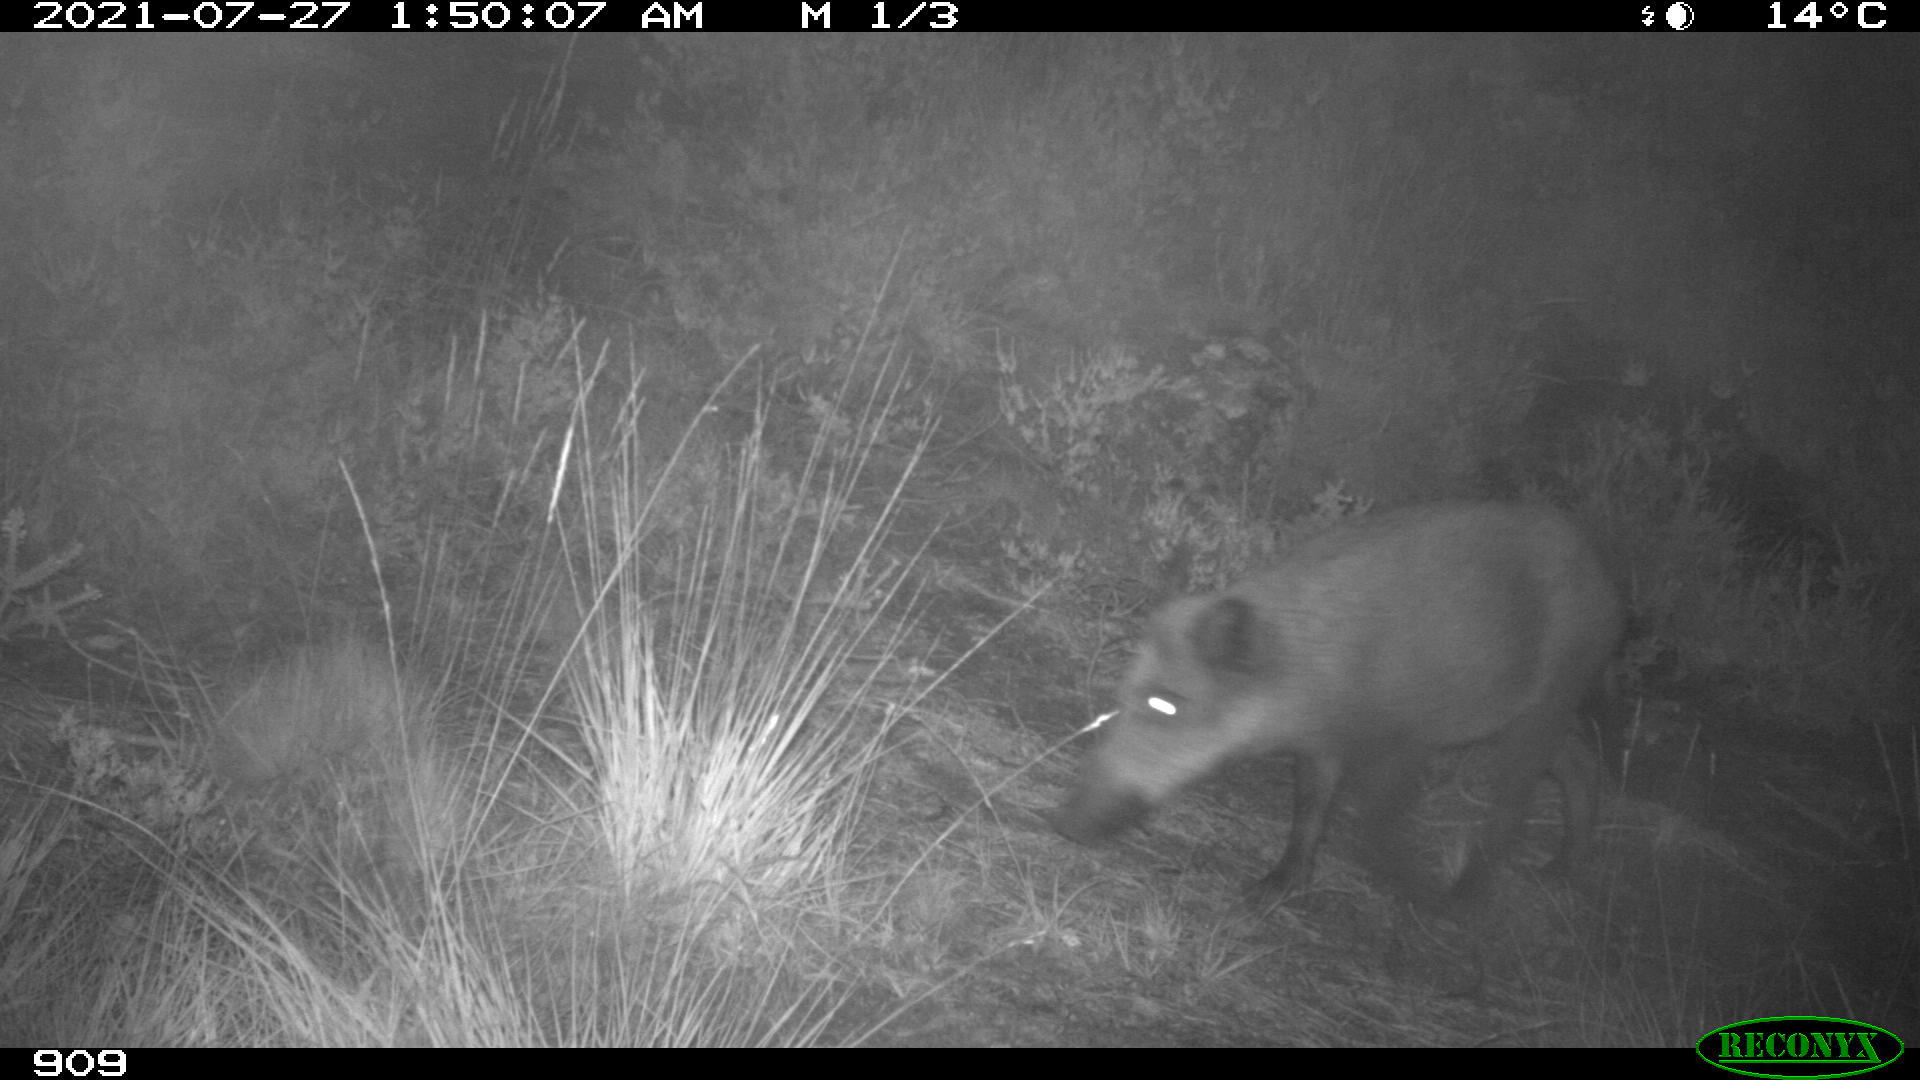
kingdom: Animalia
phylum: Chordata
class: Mammalia
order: Artiodactyla
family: Suidae
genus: Sus
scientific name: Sus scrofa
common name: Wild boar
